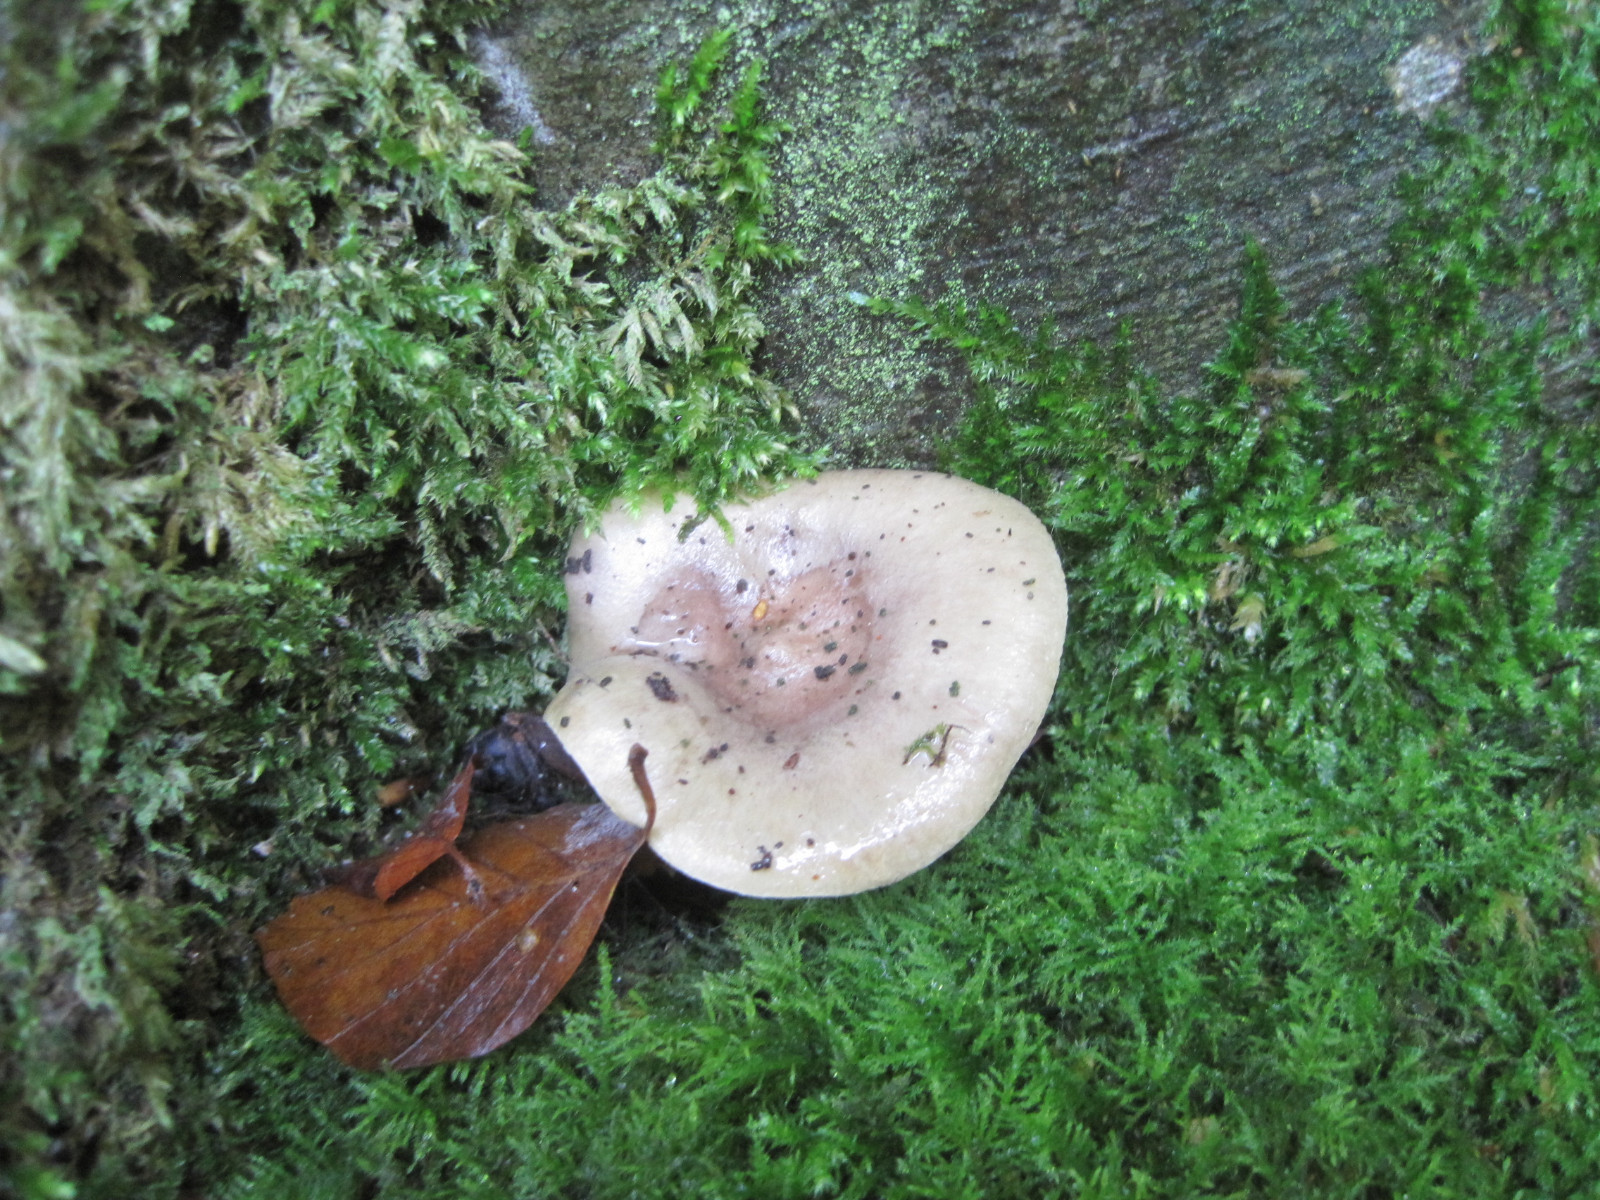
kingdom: Fungi
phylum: Basidiomycota
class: Agaricomycetes
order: Russulales
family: Russulaceae
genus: Lactarius
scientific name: Lactarius blennius
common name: dråbeplettet mælkehat
